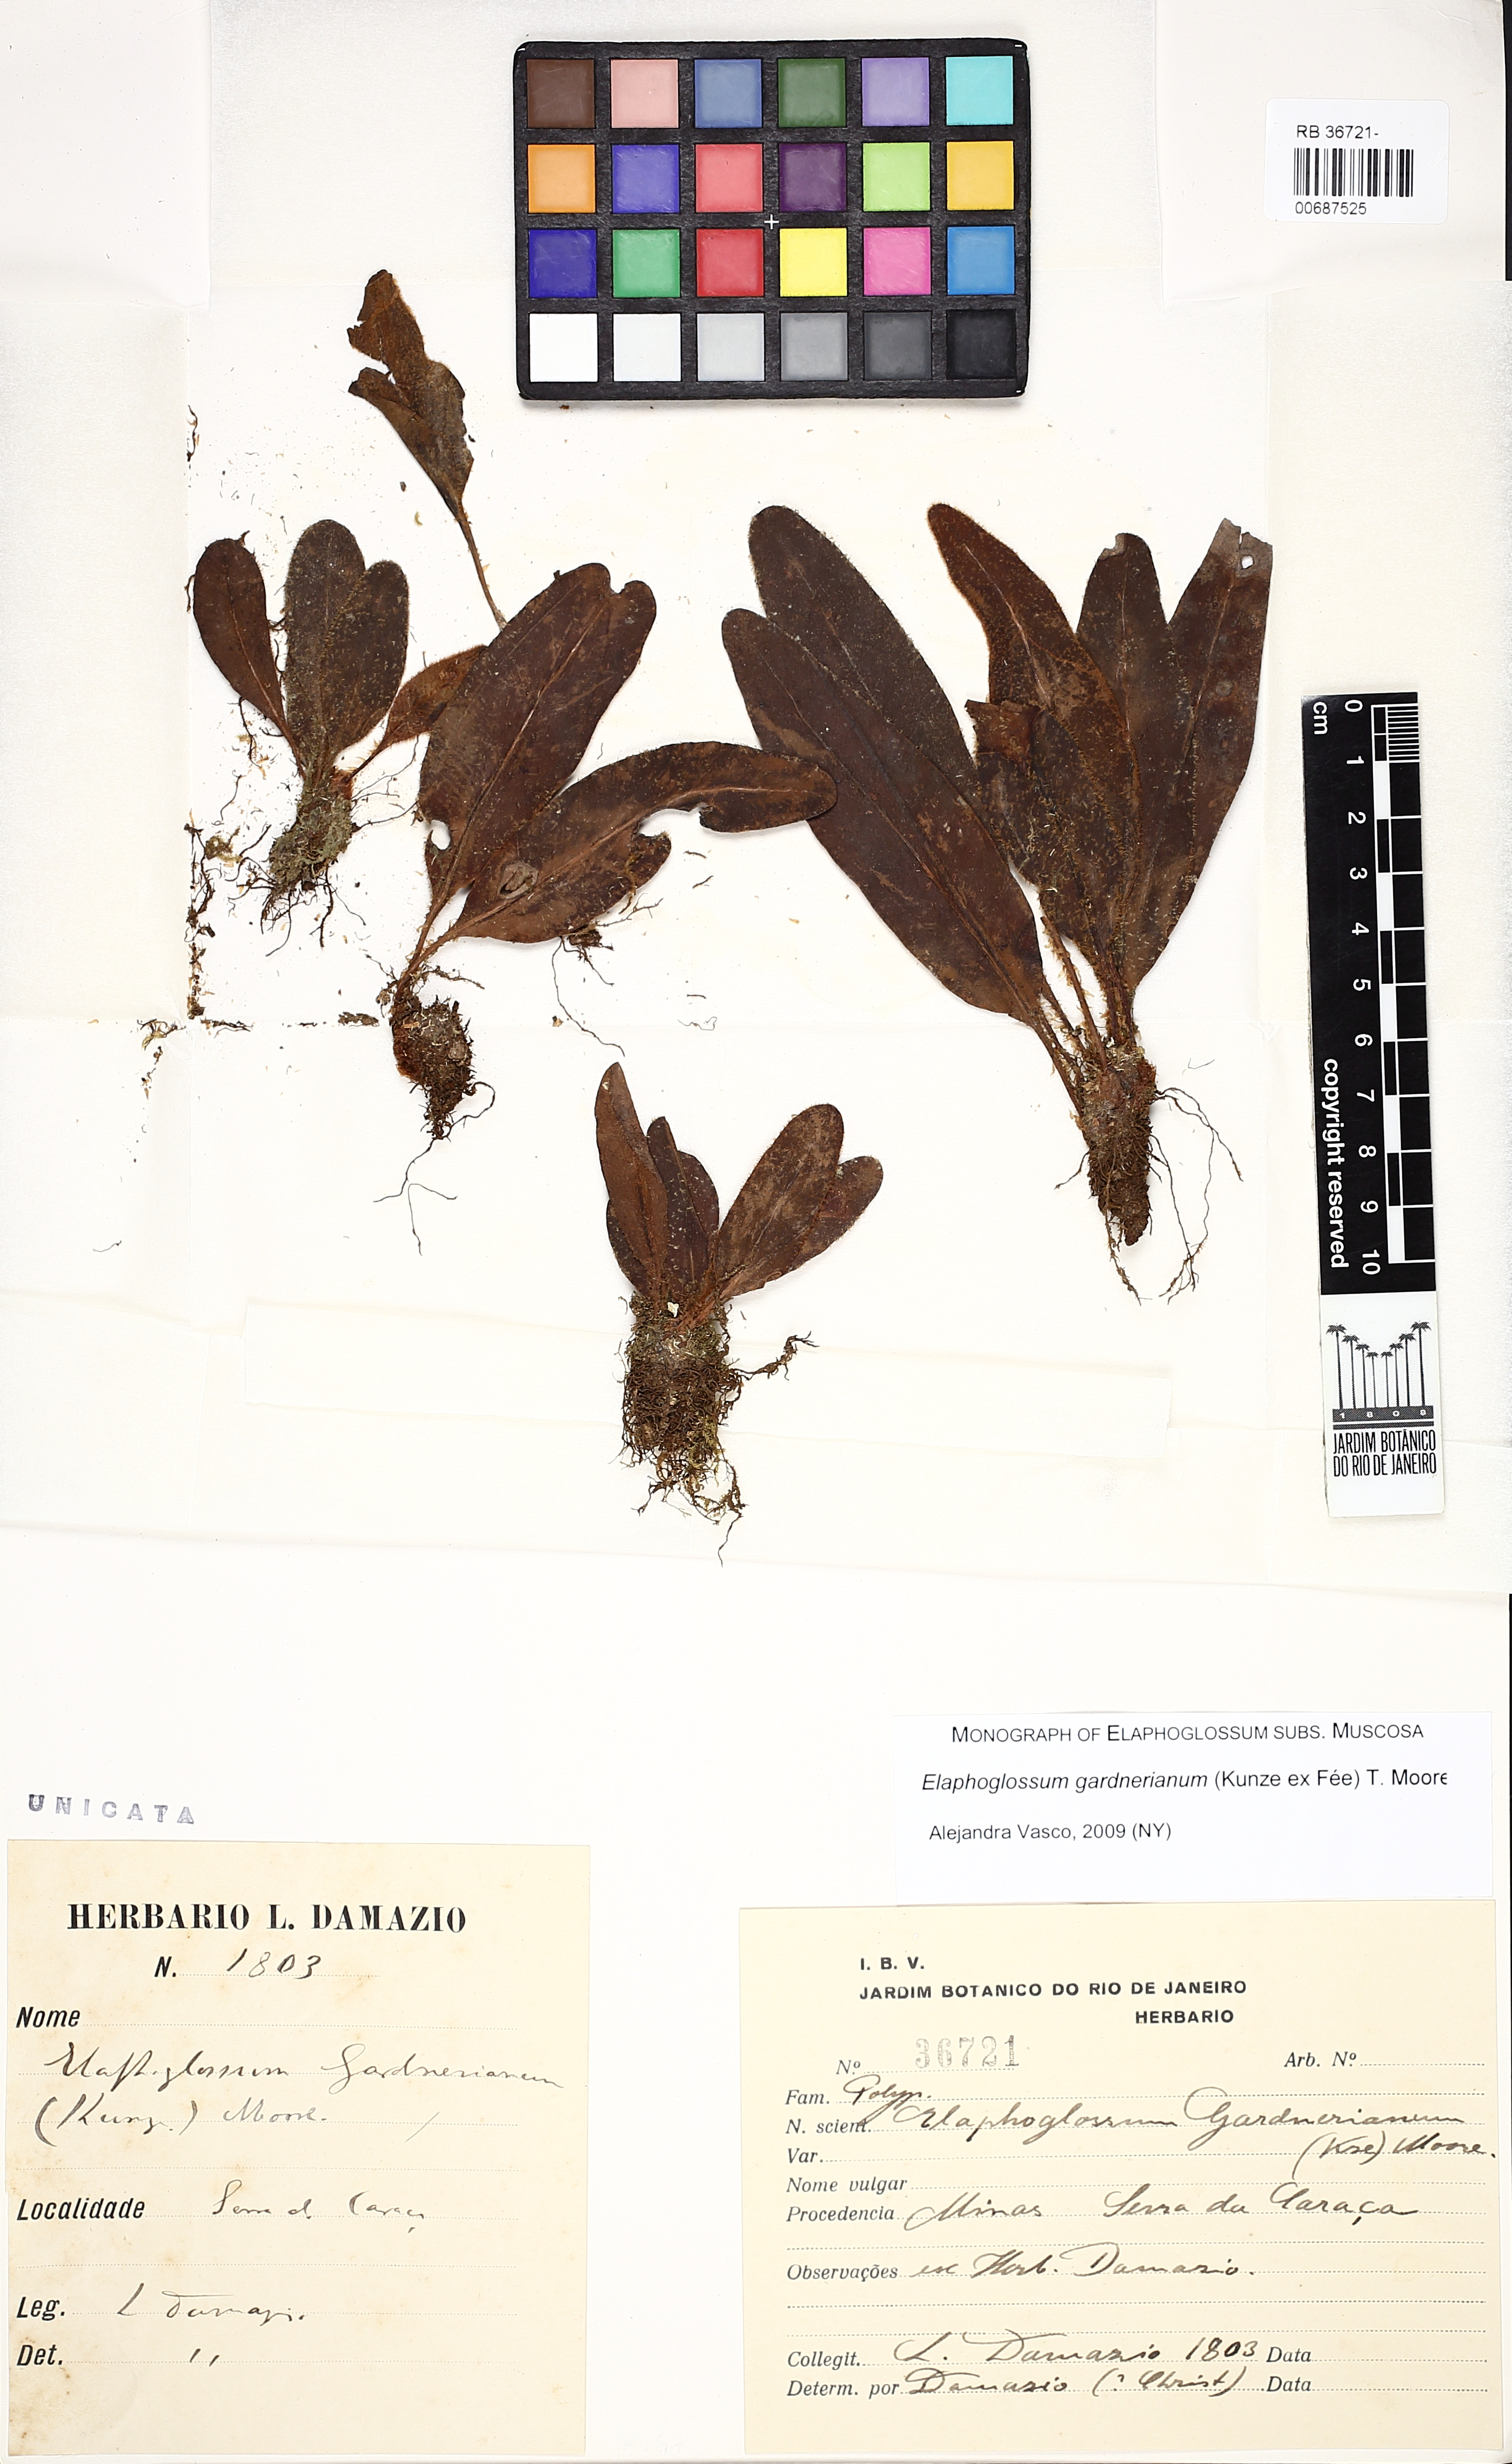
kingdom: Plantae
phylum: Tracheophyta
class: Polypodiopsida
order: Polypodiales
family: Dryopteridaceae
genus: Elaphoglossum
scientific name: Elaphoglossum gardnerianum
